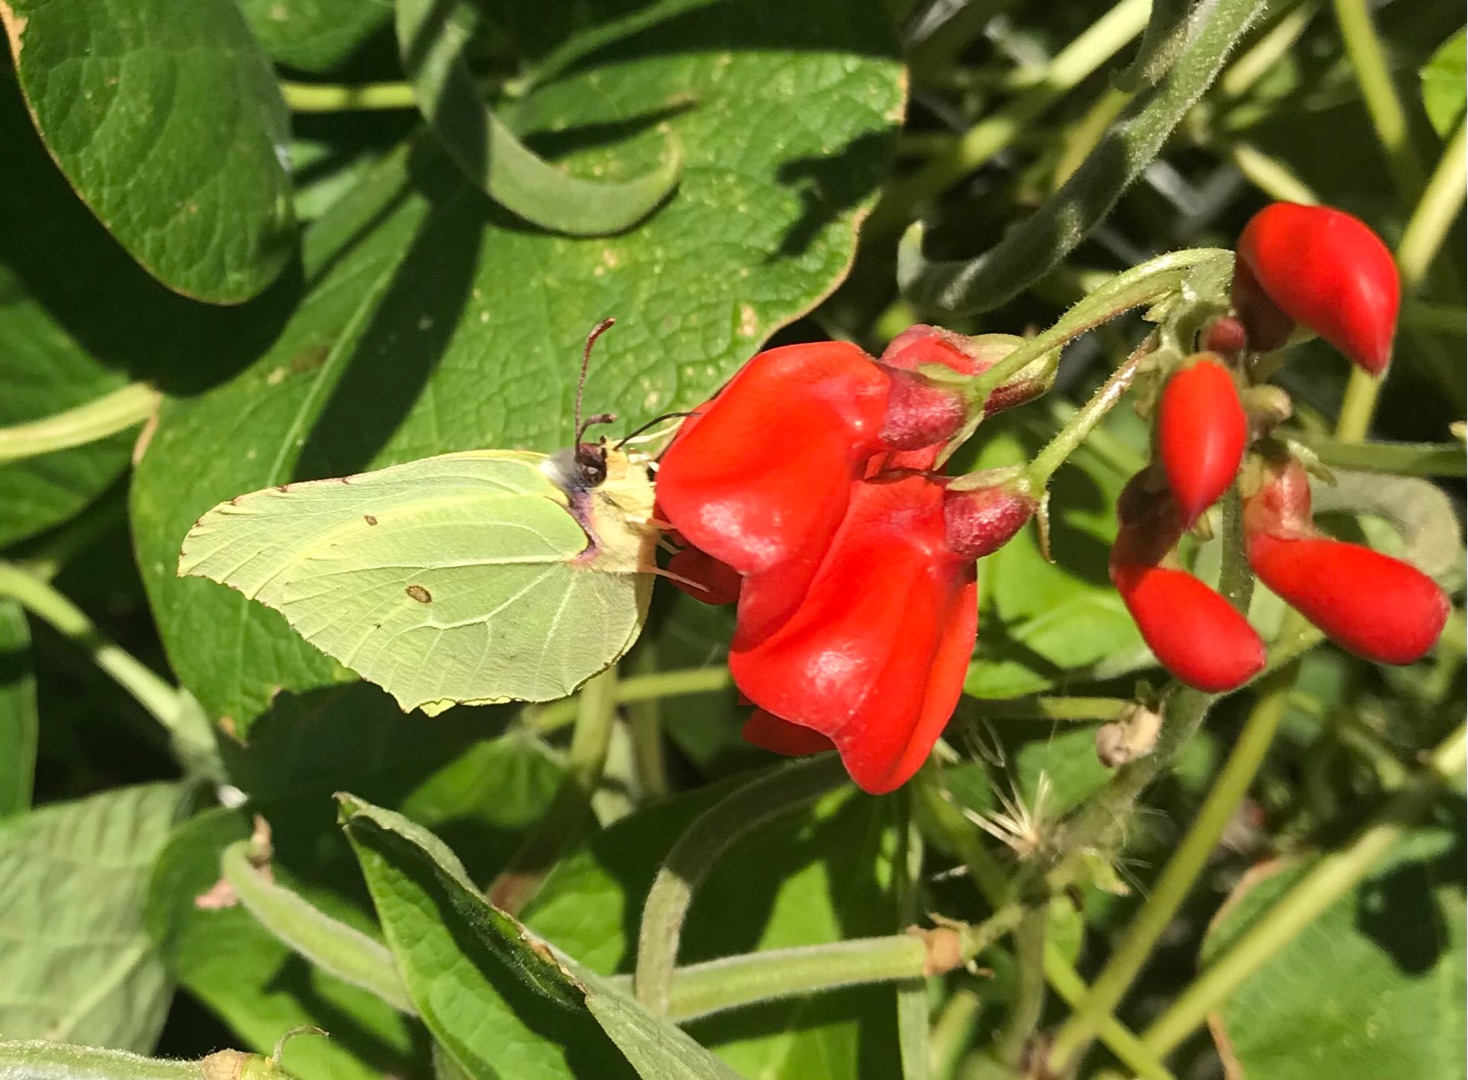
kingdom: Animalia
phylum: Arthropoda
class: Insecta
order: Lepidoptera
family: Pieridae
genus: Gonepteryx
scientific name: Gonepteryx rhamni
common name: Citronsommerfugl
